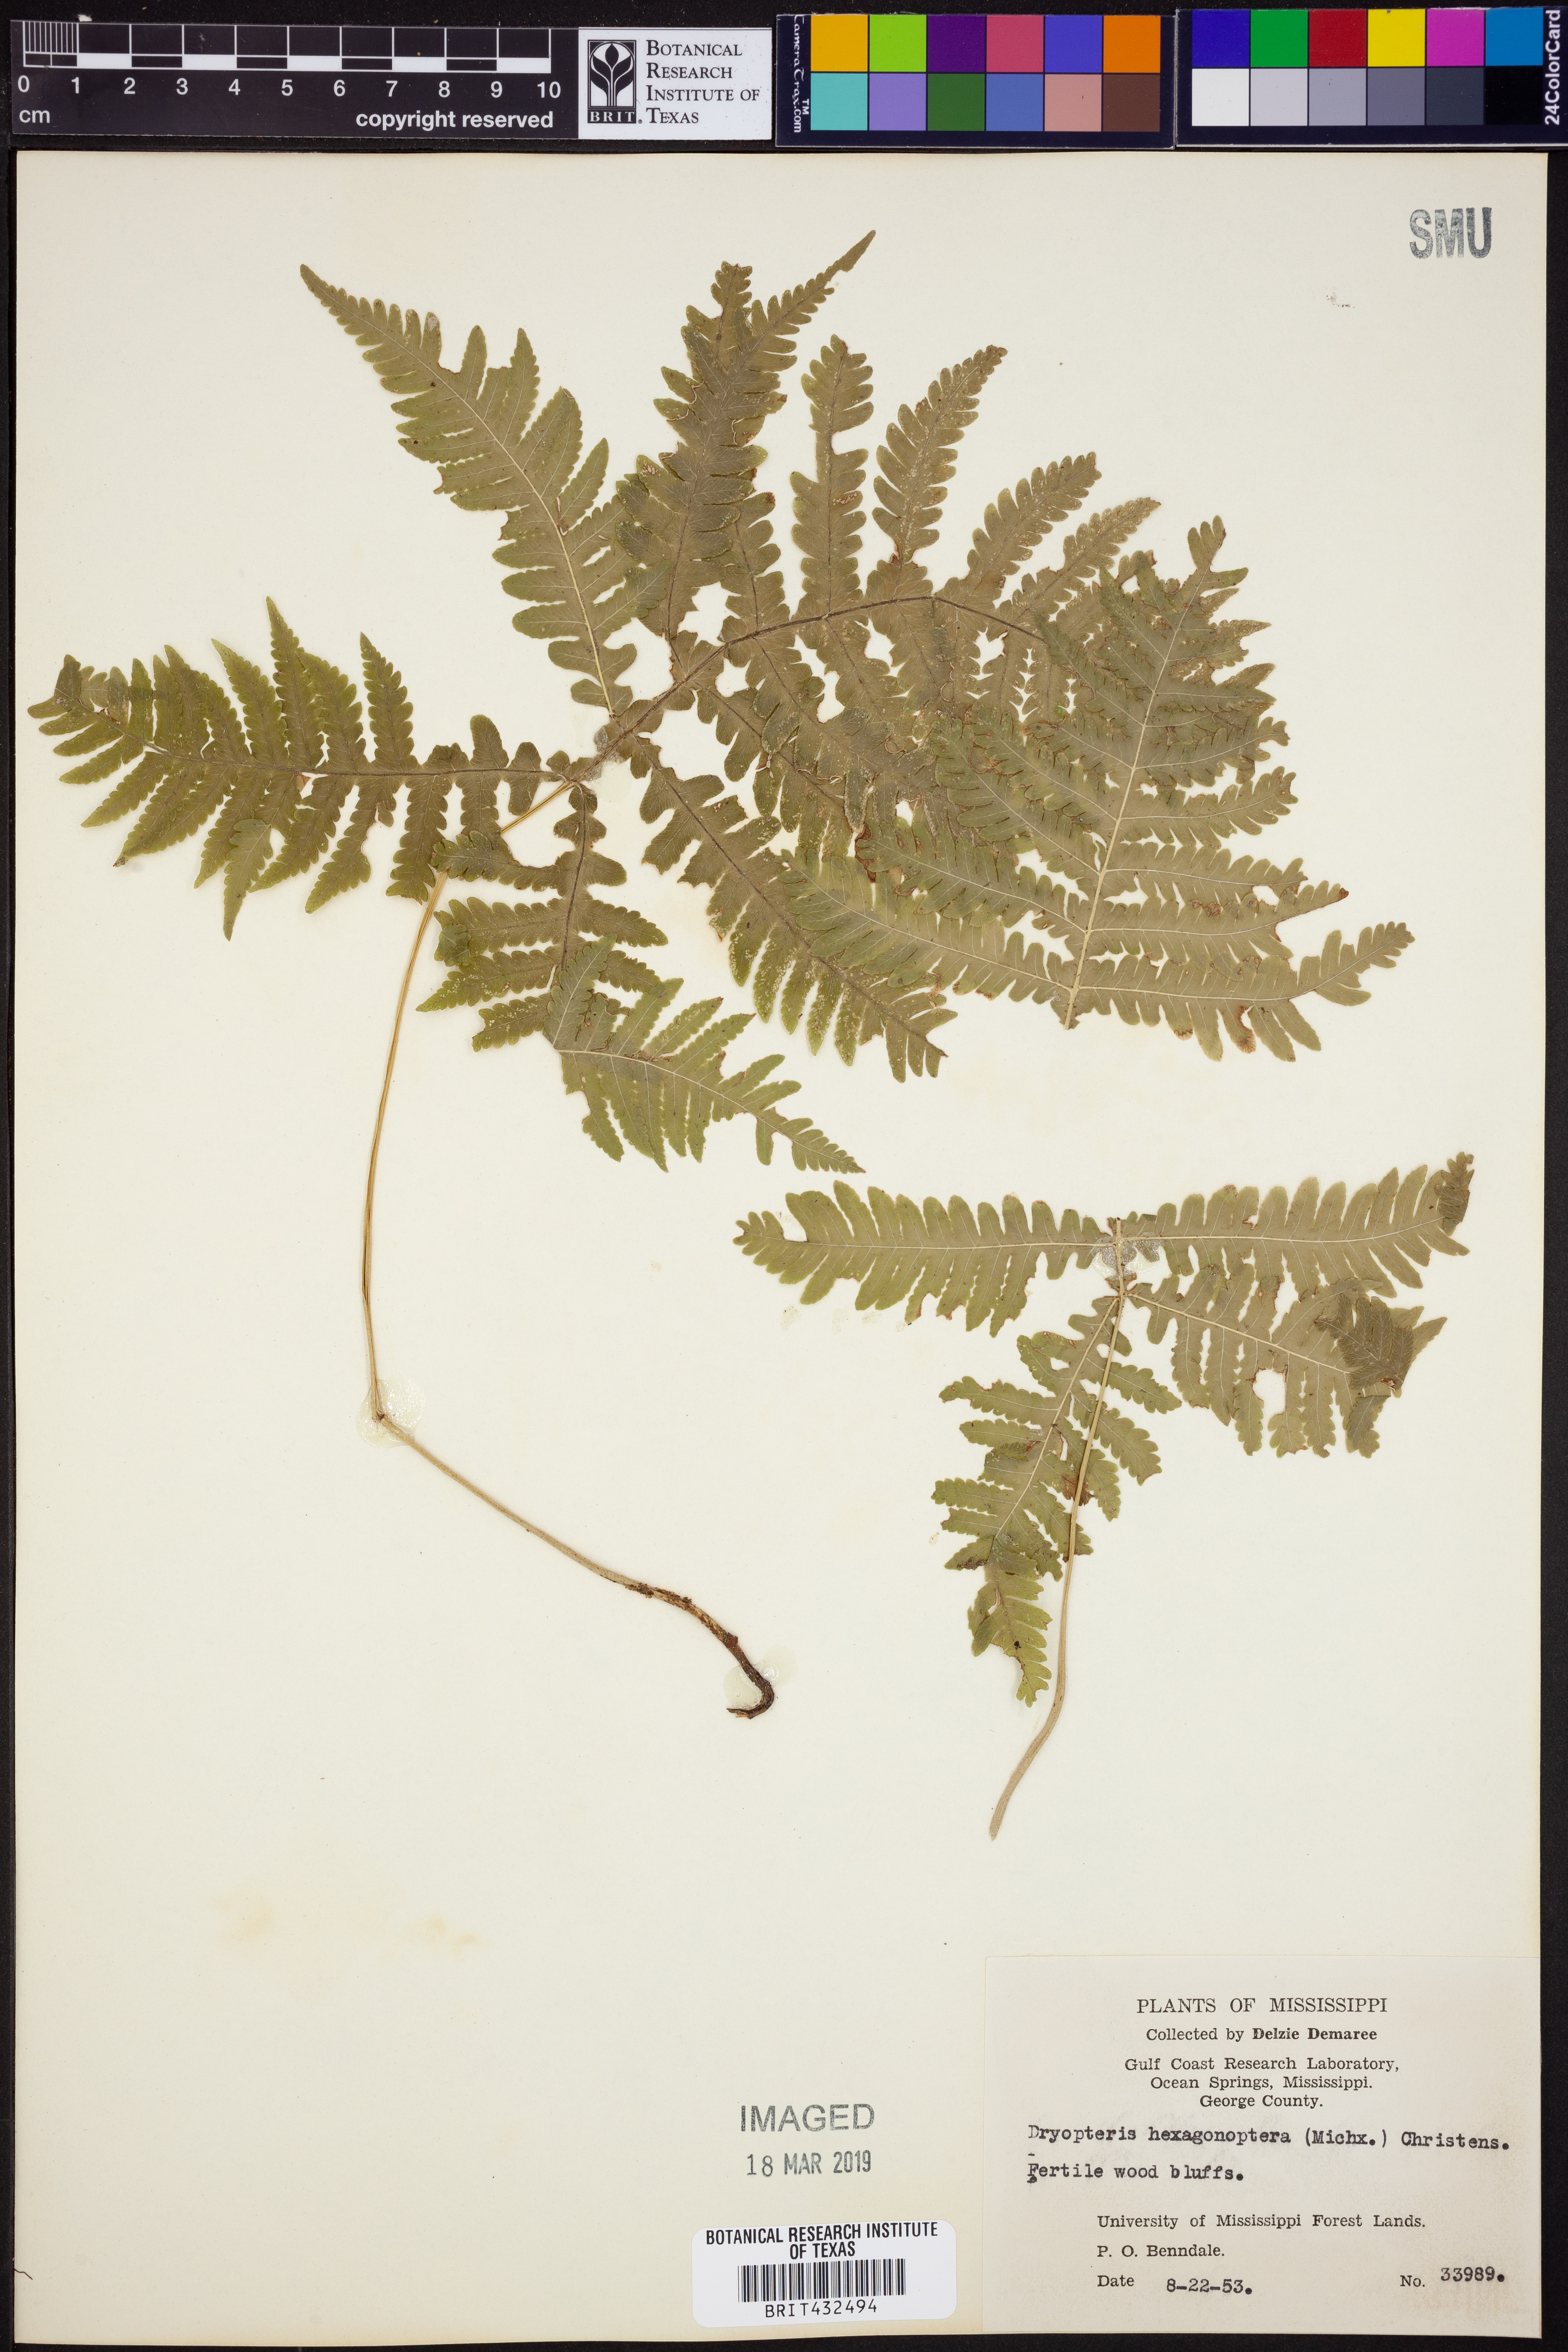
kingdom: Plantae
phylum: Tracheophyta
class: Polypodiopsida
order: Polypodiales
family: Dryopteridaceae
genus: Dryopteris
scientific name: Dryopteris hexagonaptera
